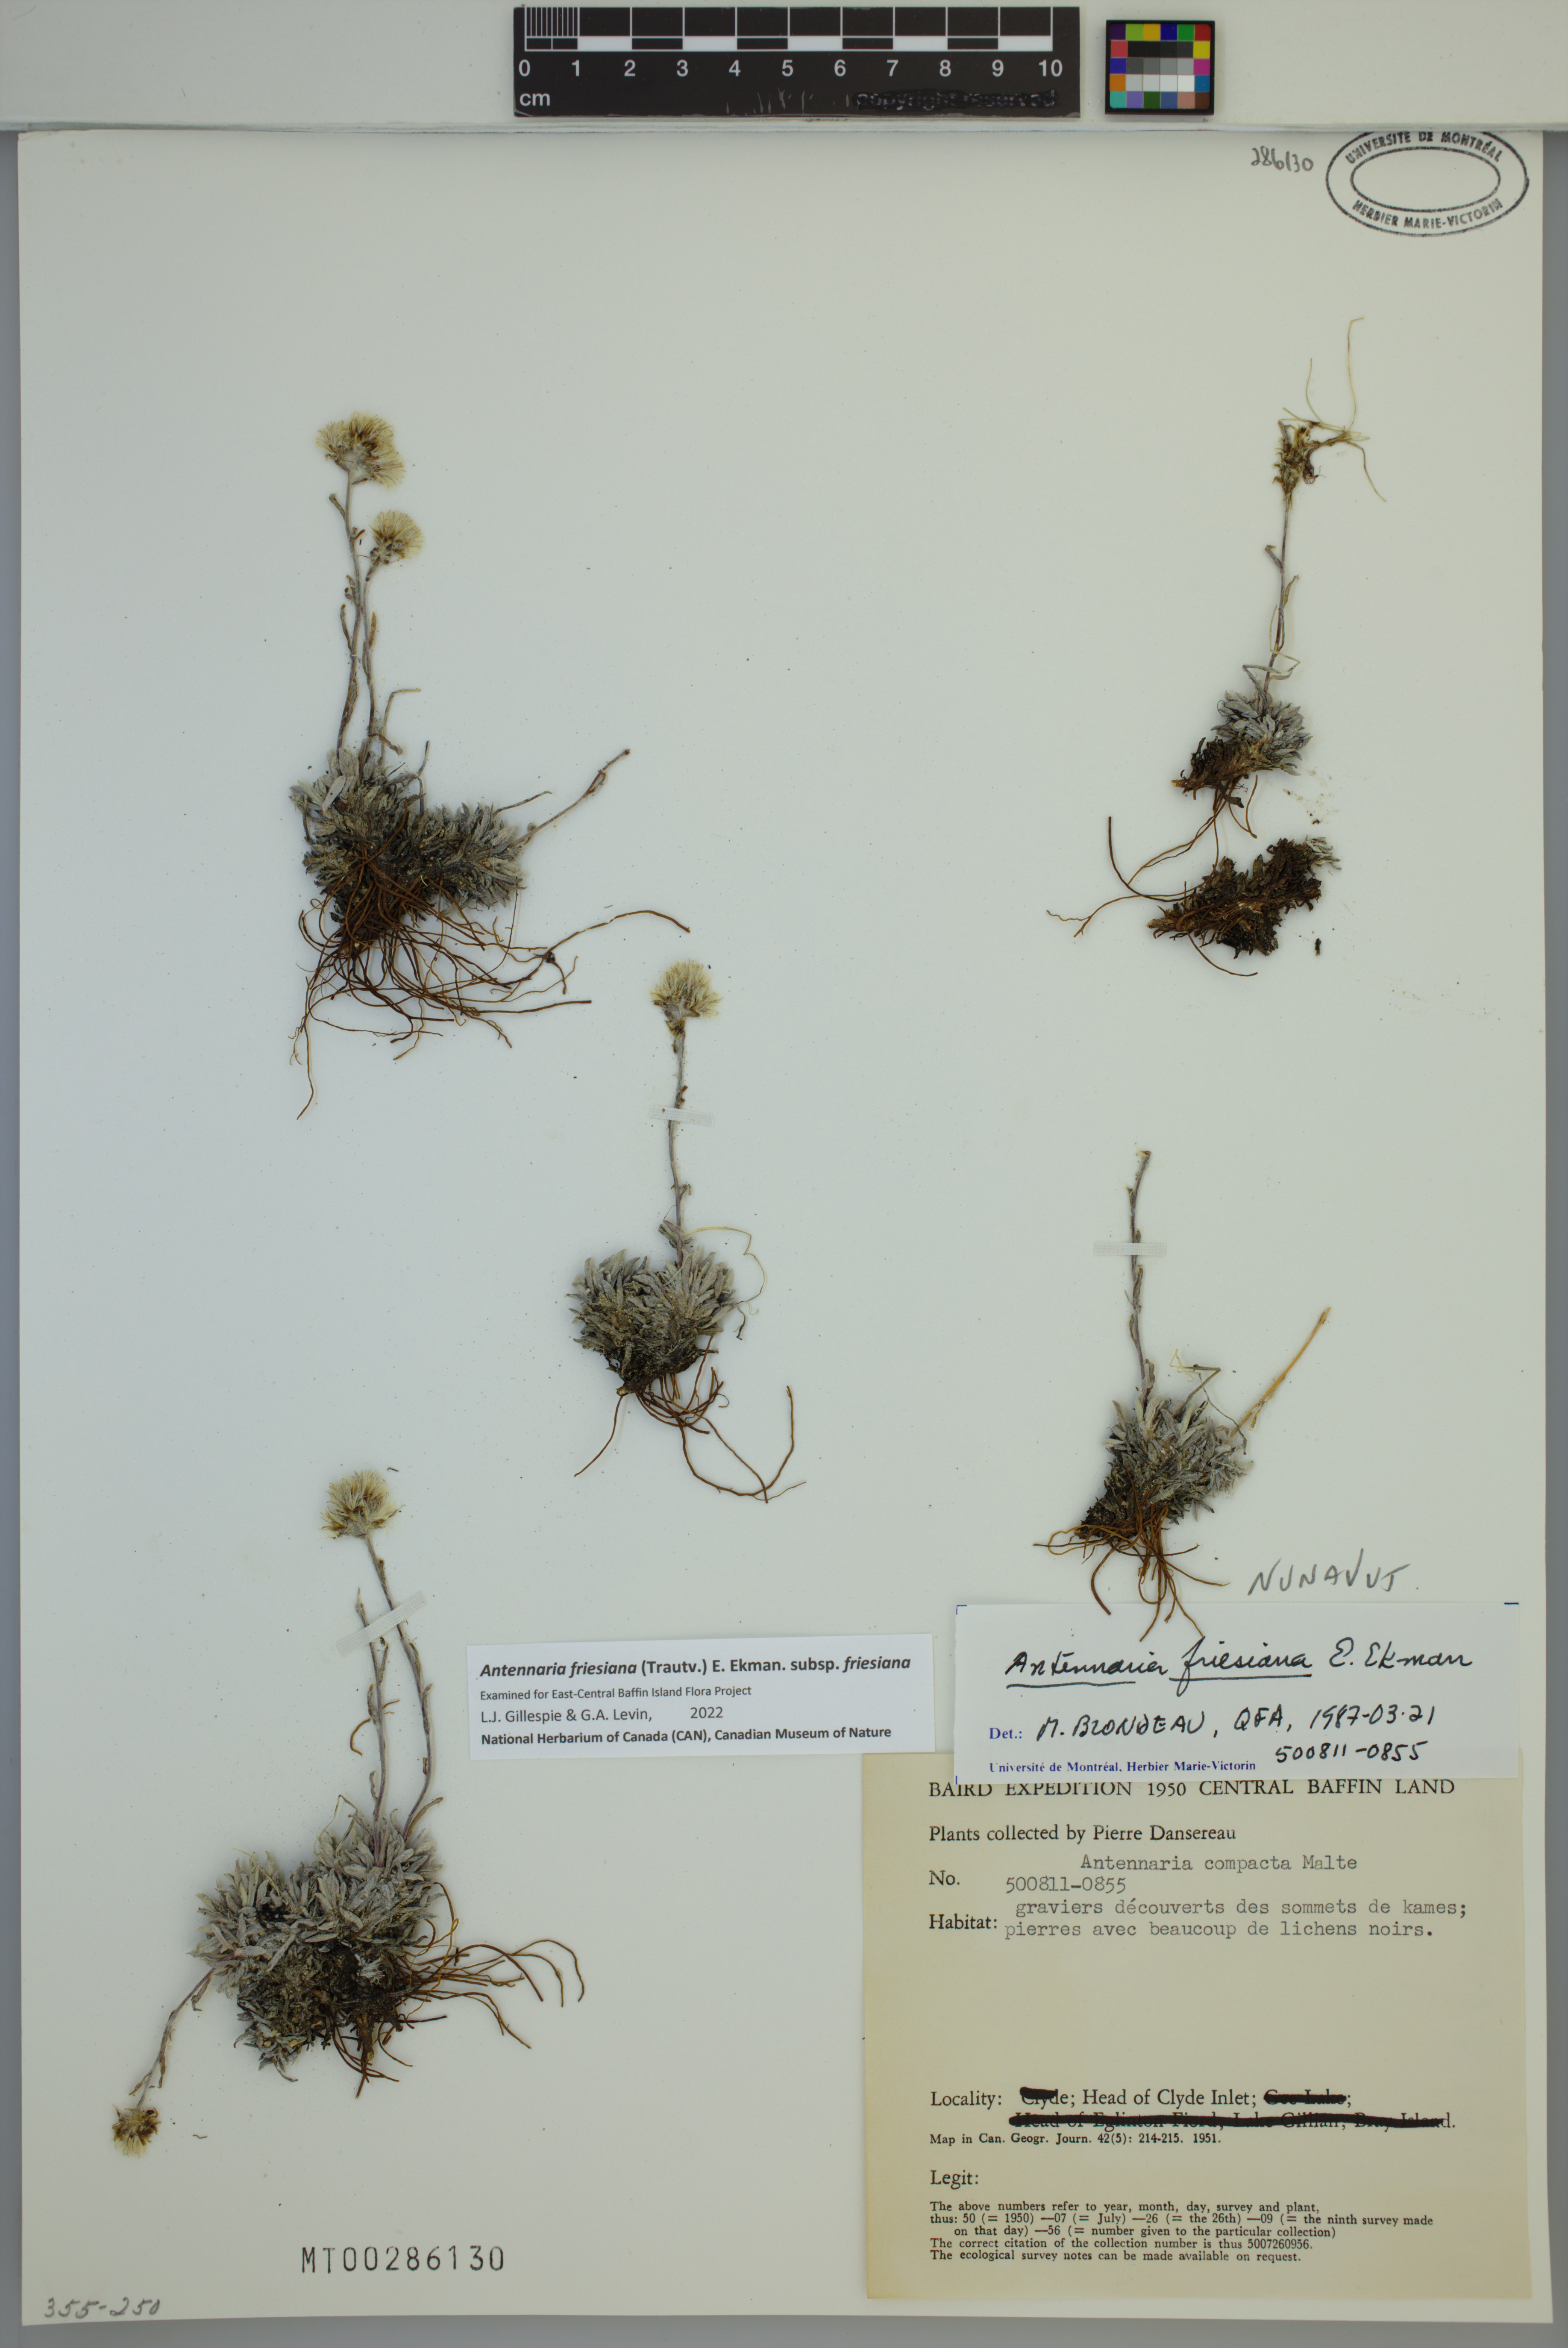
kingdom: Plantae
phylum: Tracheophyta
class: Magnoliopsida
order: Asterales
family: Asteraceae
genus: Antennaria
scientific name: Antennaria friesiana
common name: Fries' pussytoes
